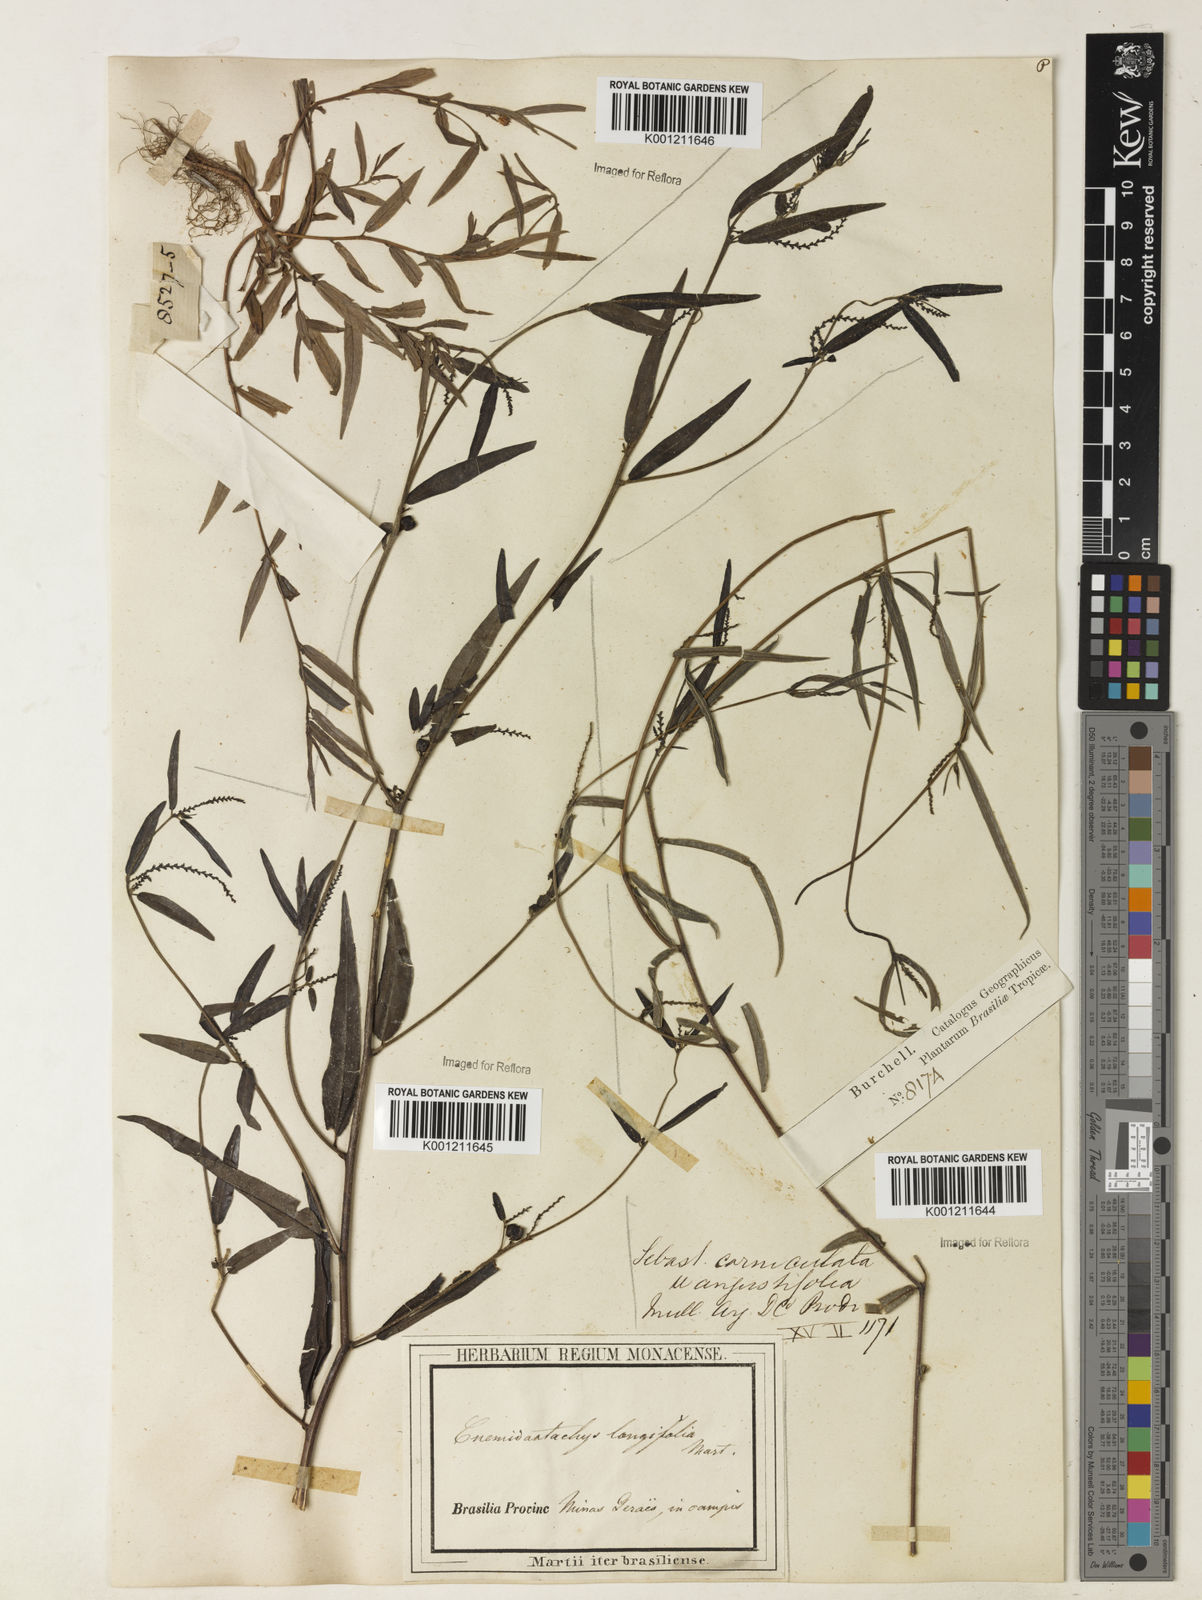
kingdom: Plantae
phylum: Tracheophyta
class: Magnoliopsida
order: Malpighiales
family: Euphorbiaceae
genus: Microstachys
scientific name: Microstachys
